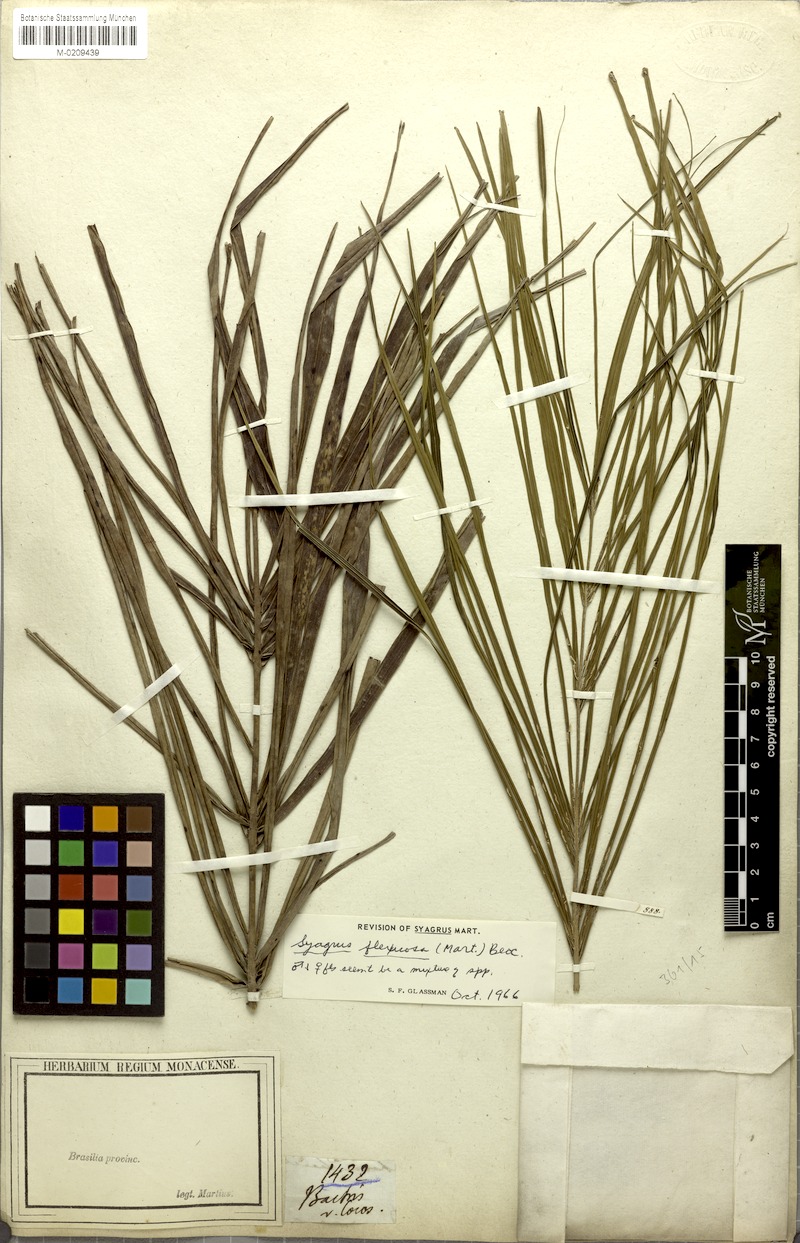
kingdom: Plantae
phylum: Tracheophyta
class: Liliopsida
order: Arecales
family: Arecaceae
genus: Syagrus
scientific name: Syagrus flexuosa
